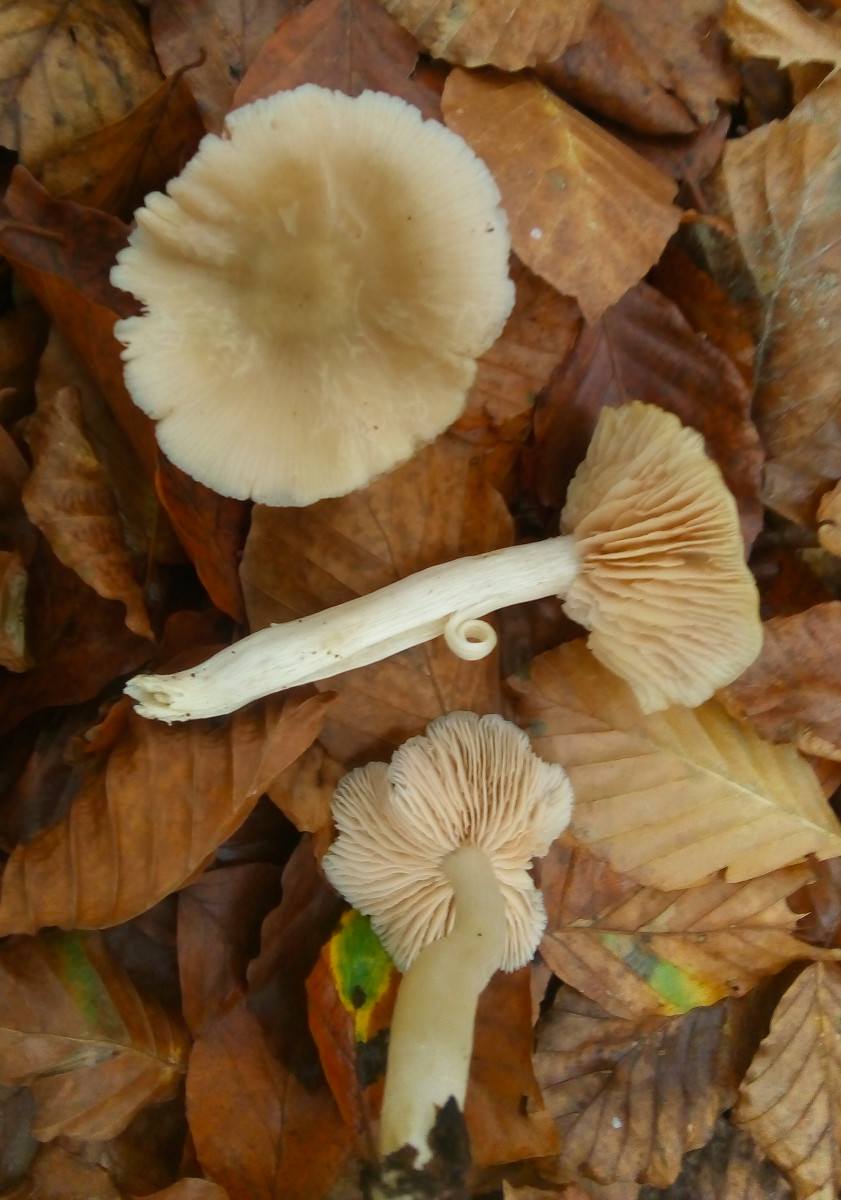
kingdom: Fungi
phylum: Basidiomycota
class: Agaricomycetes
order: Agaricales
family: Entolomataceae
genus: Entoloma
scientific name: Entoloma rhodopolium
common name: skov-rødblad
